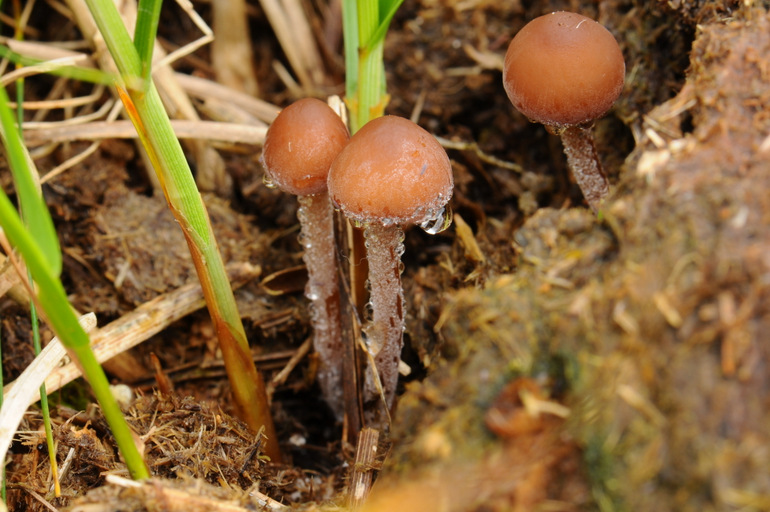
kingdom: Fungi
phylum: Basidiomycota
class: Agaricomycetes
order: Agaricales
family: Bolbitiaceae
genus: Panaeolus
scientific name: Panaeolus acuminatus
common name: høj glanshat
